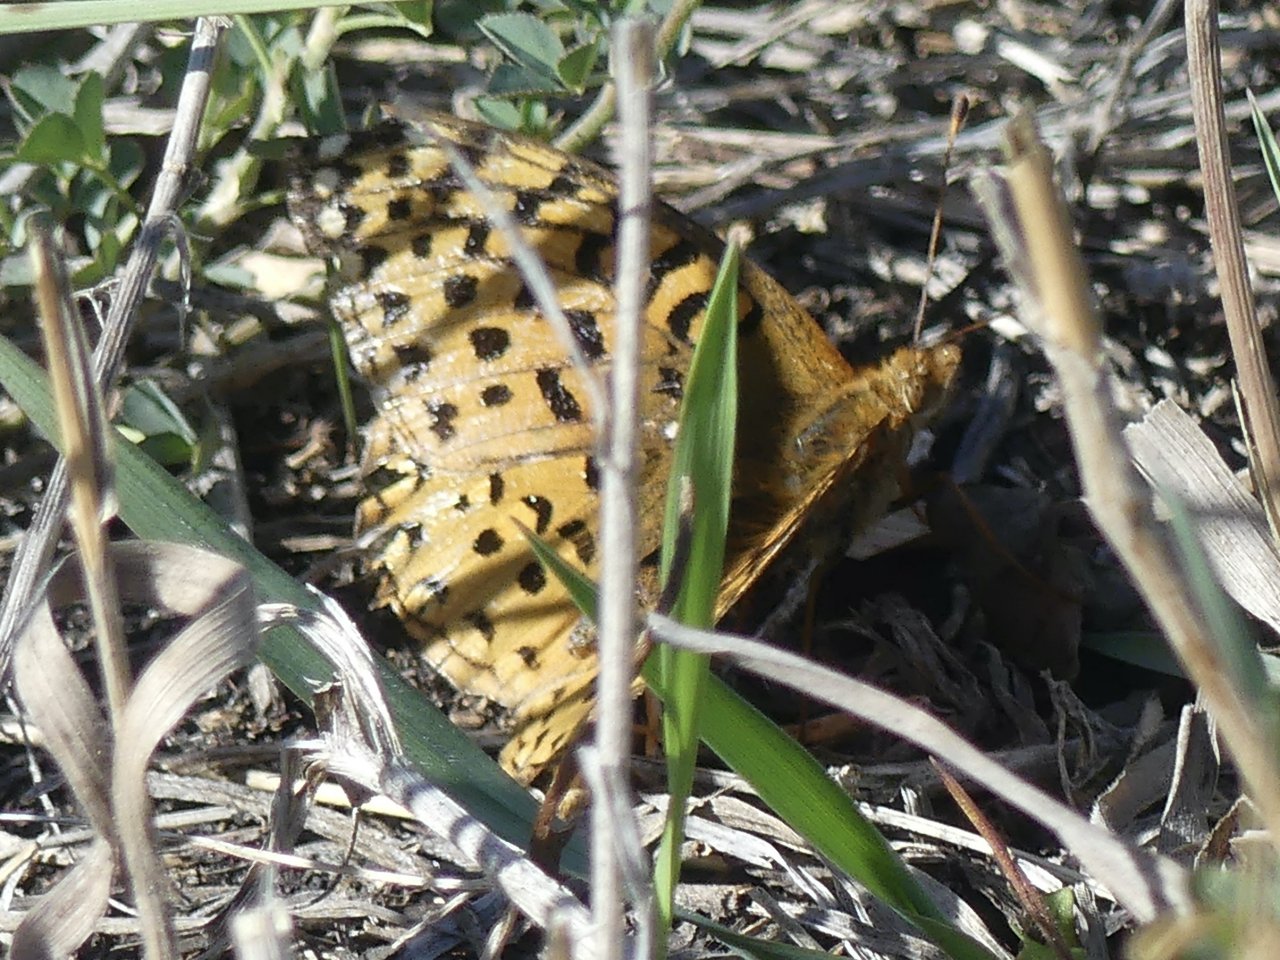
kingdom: Animalia
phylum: Arthropoda
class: Insecta
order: Lepidoptera
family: Nymphalidae
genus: Speyeria
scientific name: Speyeria
